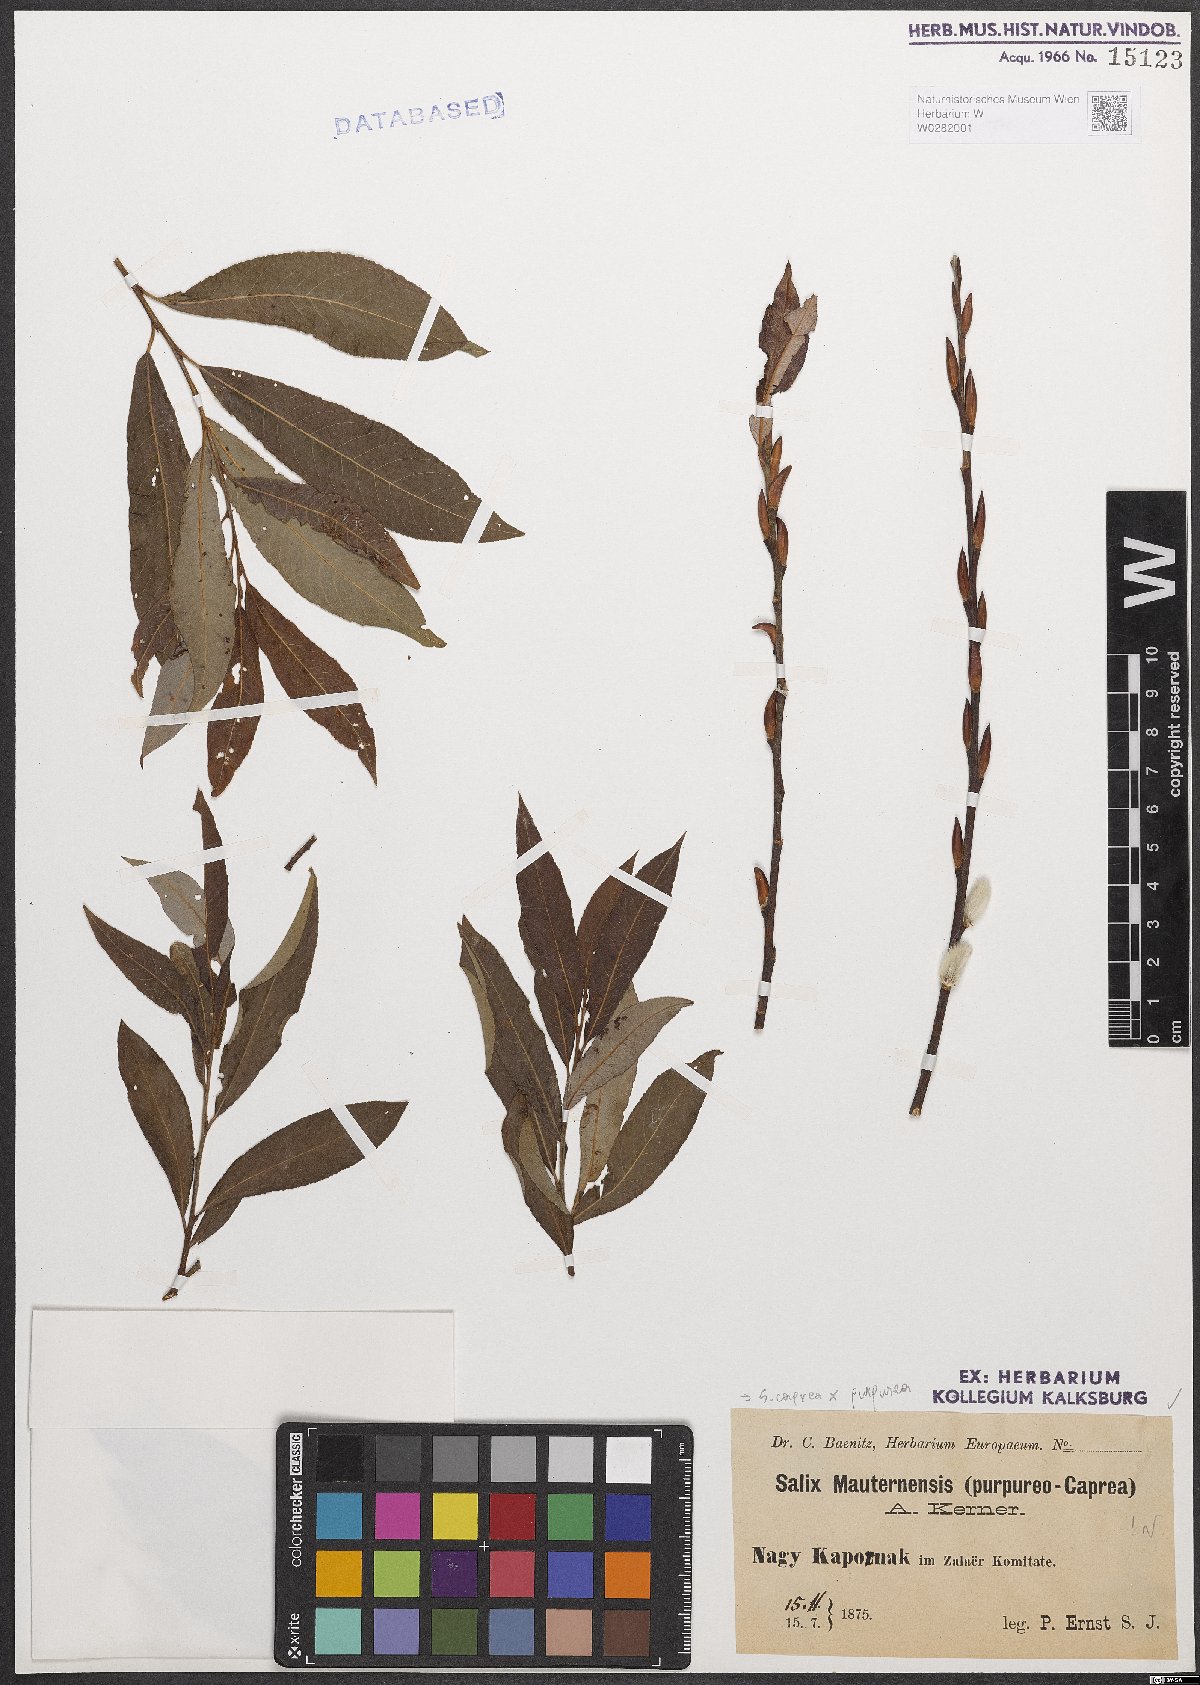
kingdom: Plantae
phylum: Tracheophyta
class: Magnoliopsida
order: Malpighiales
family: Salicaceae
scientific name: Salicaceae
